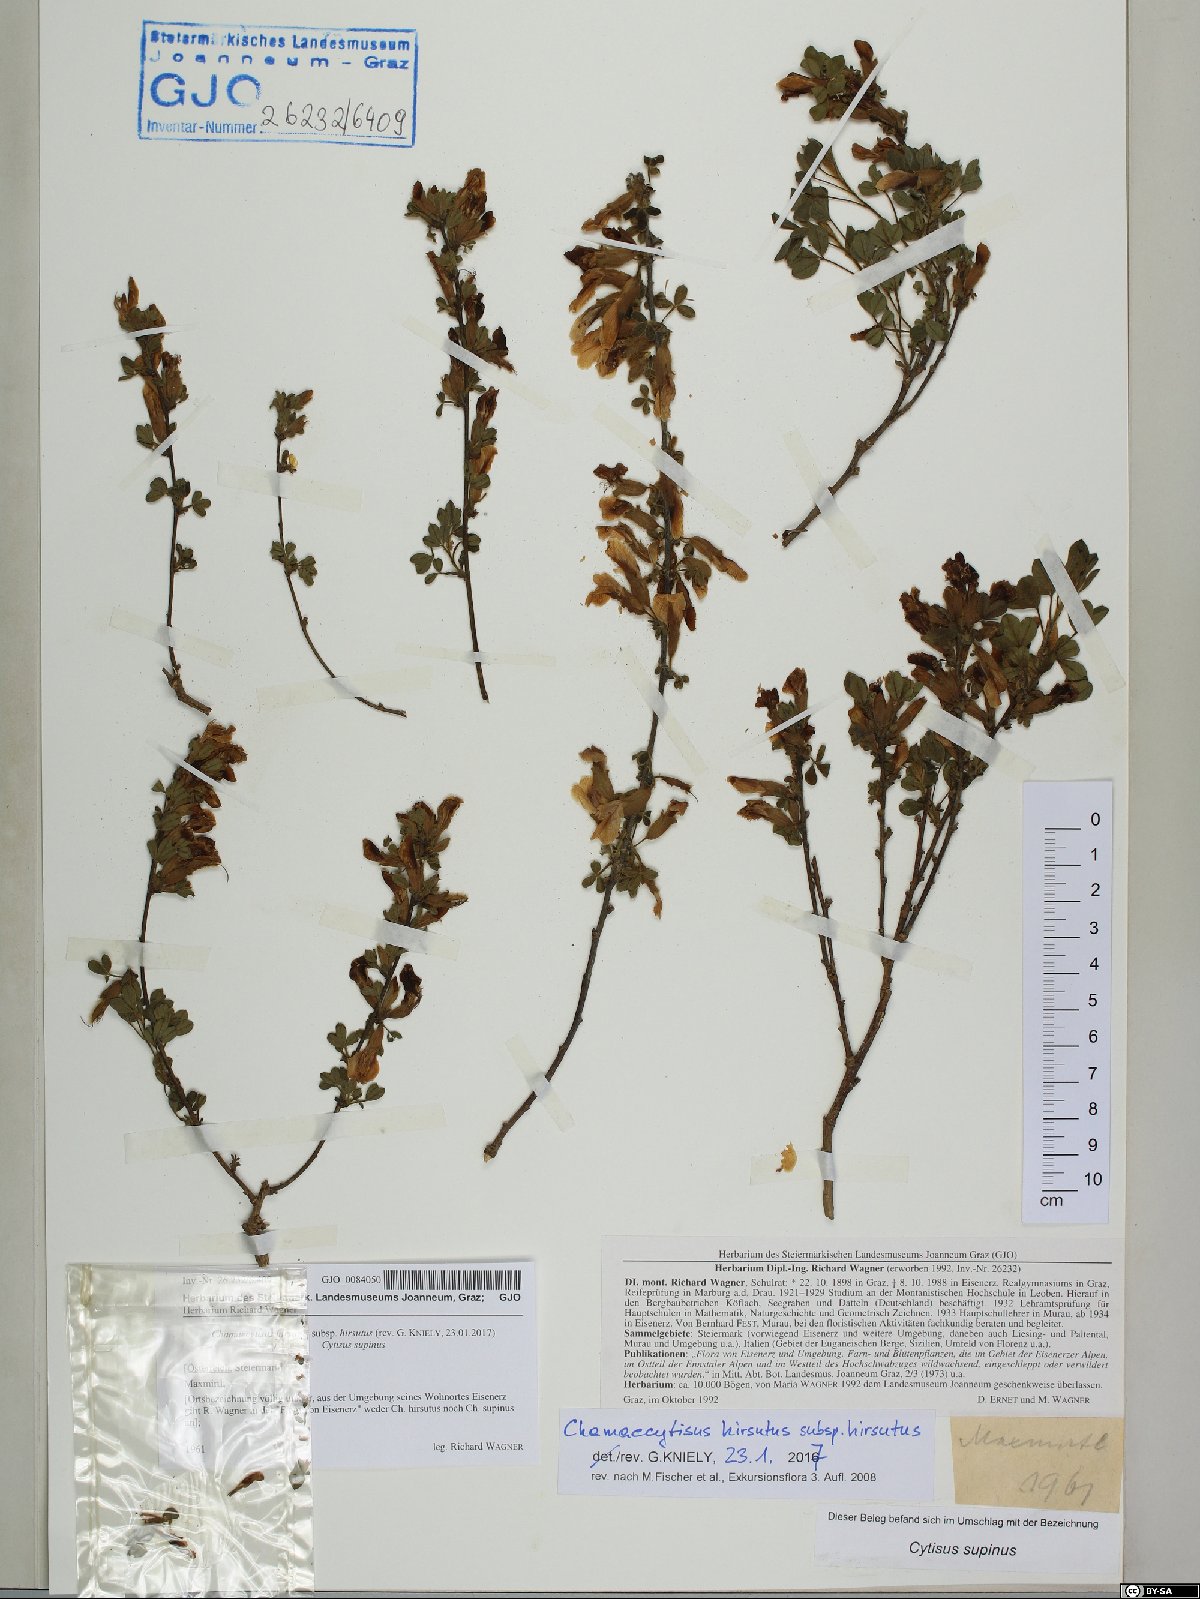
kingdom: Plantae
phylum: Tracheophyta
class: Magnoliopsida
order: Fabales
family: Fabaceae
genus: Chamaecytisus
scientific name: Chamaecytisus hirsutus
